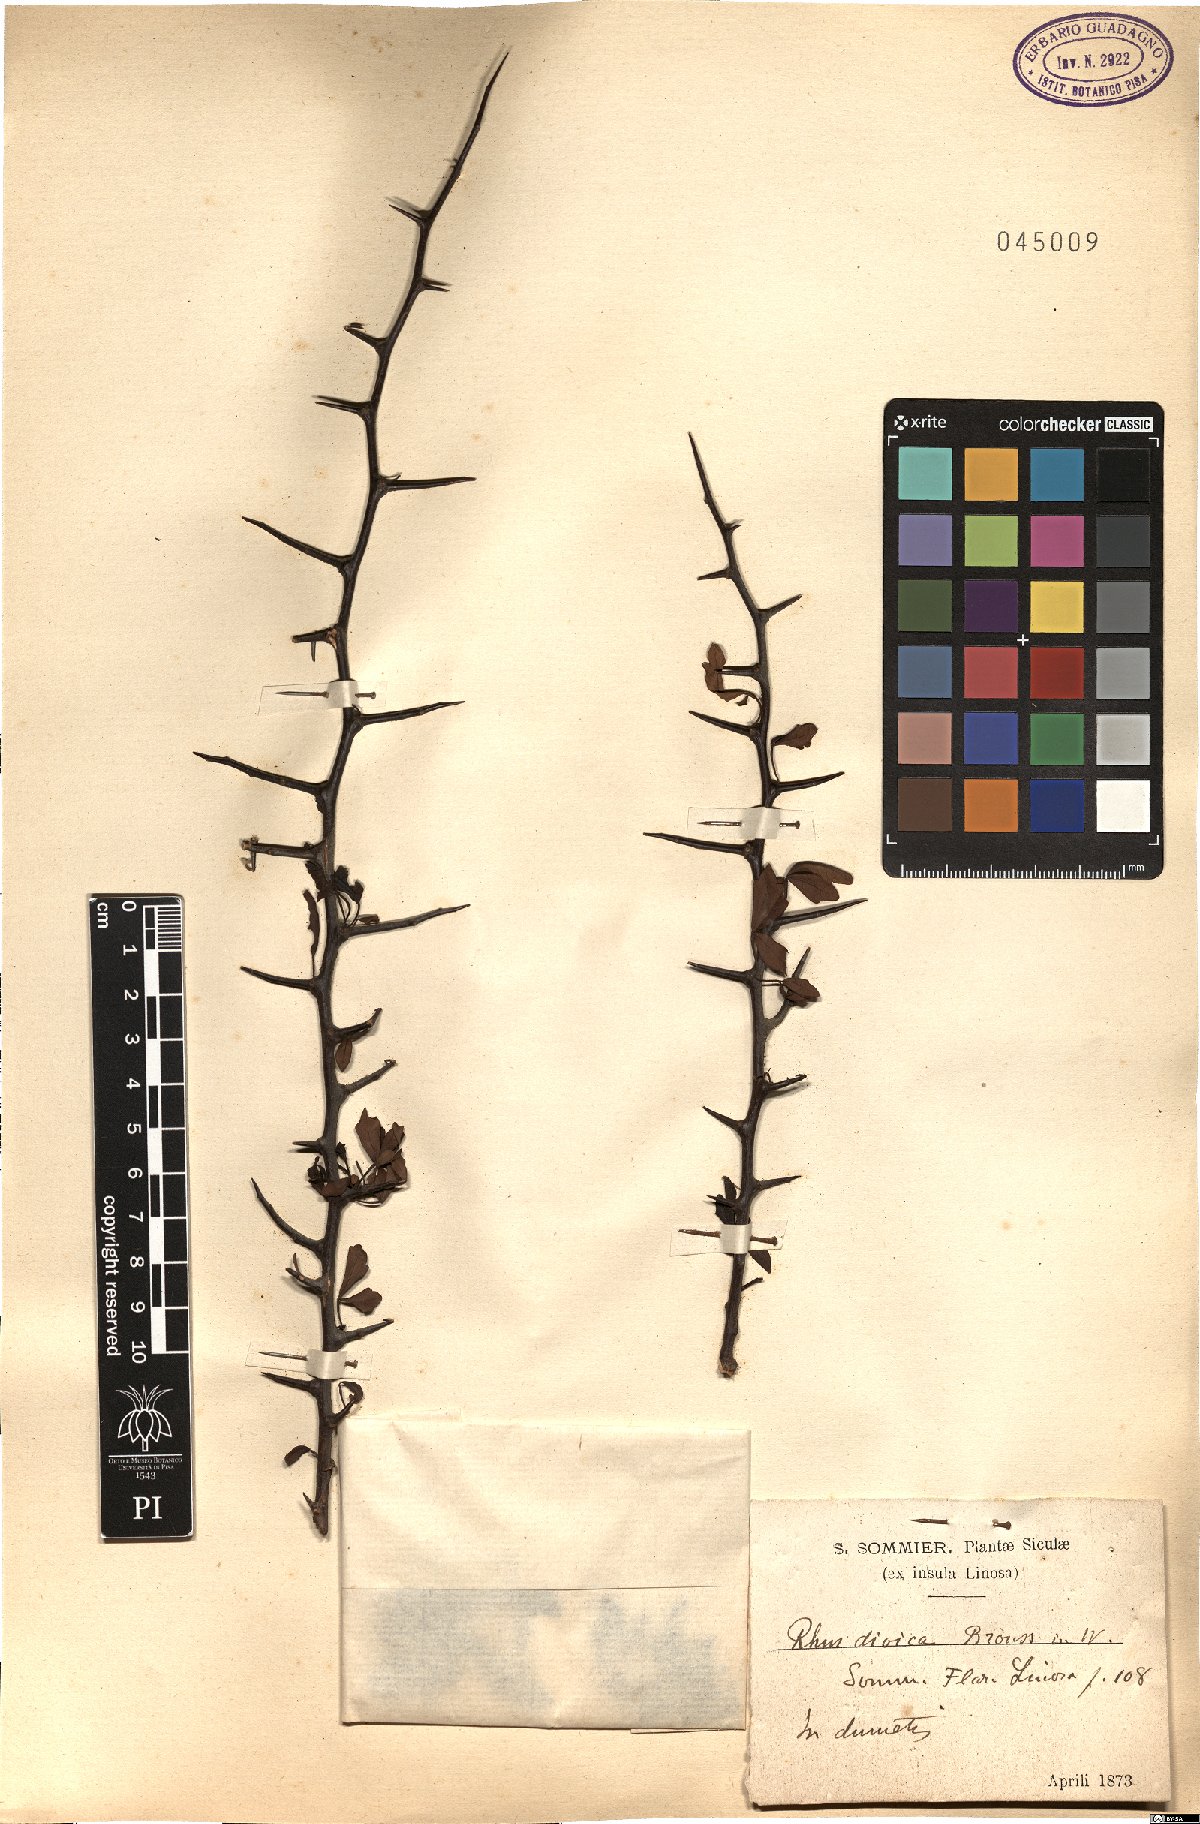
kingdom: Plantae
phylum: Tracheophyta
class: Magnoliopsida
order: Sapindales
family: Anacardiaceae
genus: Searsia
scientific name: Searsia tripartita
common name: Tripartite sumac
